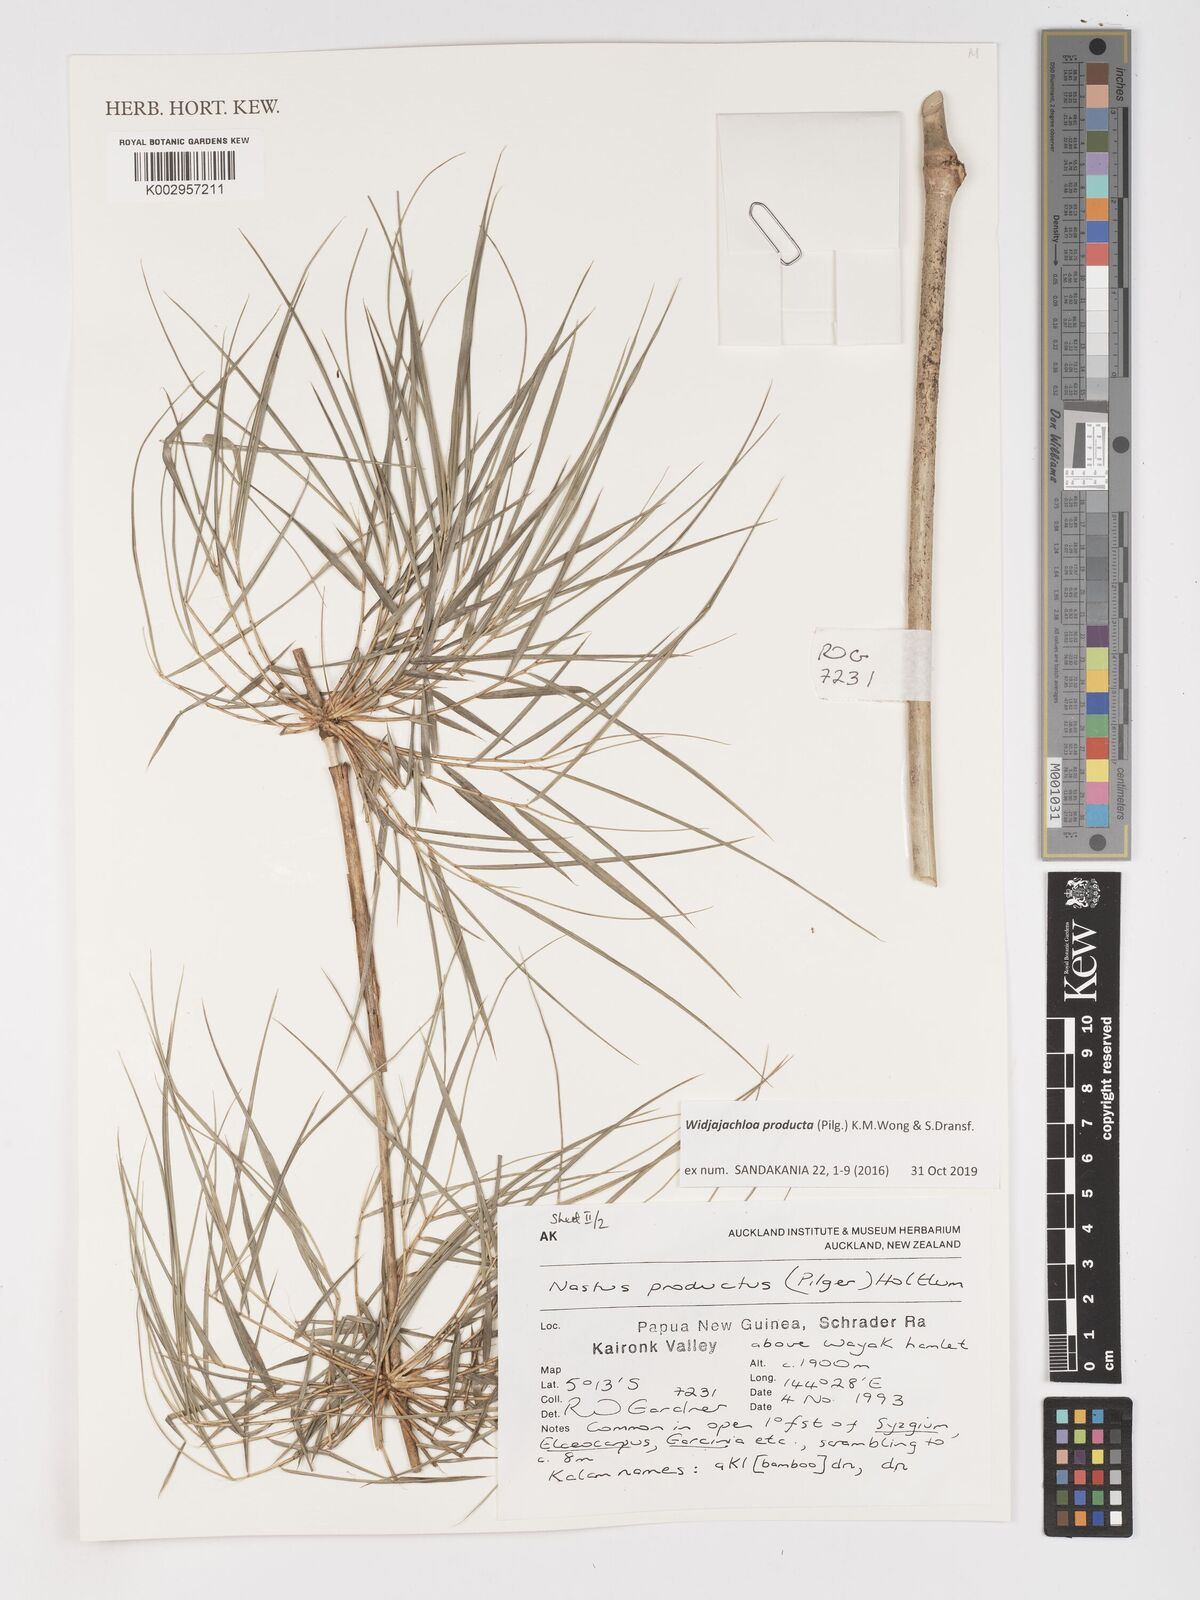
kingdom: Plantae
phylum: Tracheophyta
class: Liliopsida
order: Poales
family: Poaceae
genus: Widjajachloa
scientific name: Widjajachloa producta
